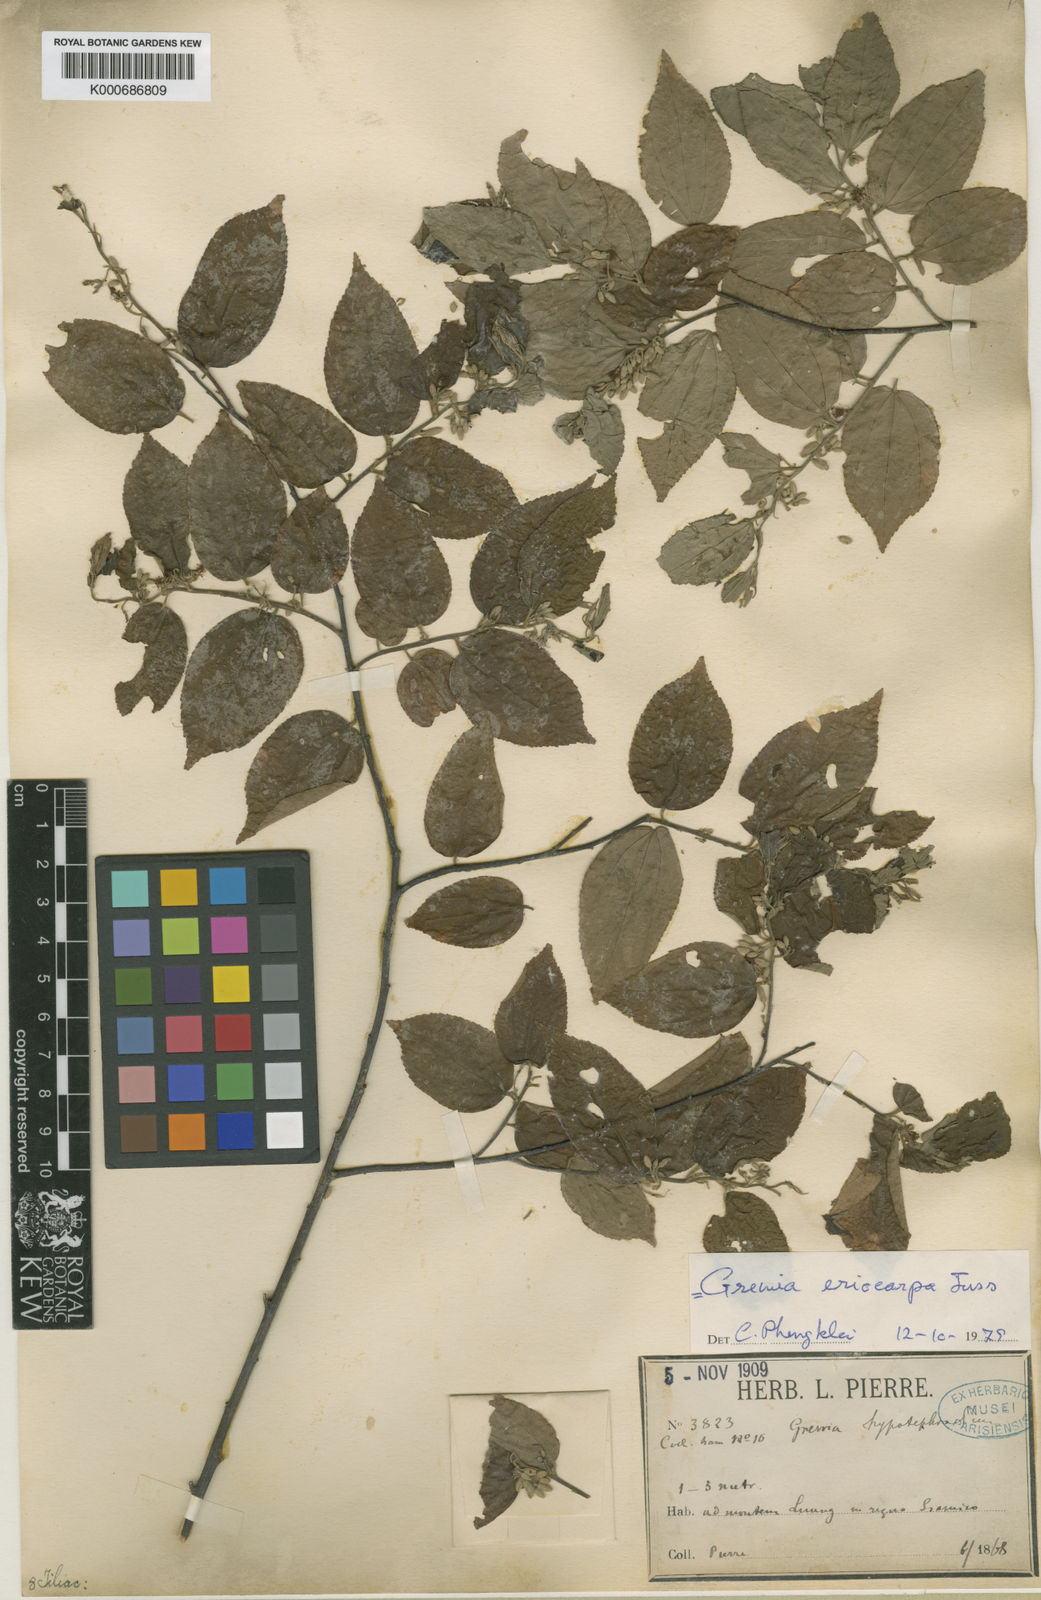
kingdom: Plantae
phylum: Tracheophyta
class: Magnoliopsida
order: Malvales
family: Malvaceae
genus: Grewia
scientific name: Grewia eriocarpa
